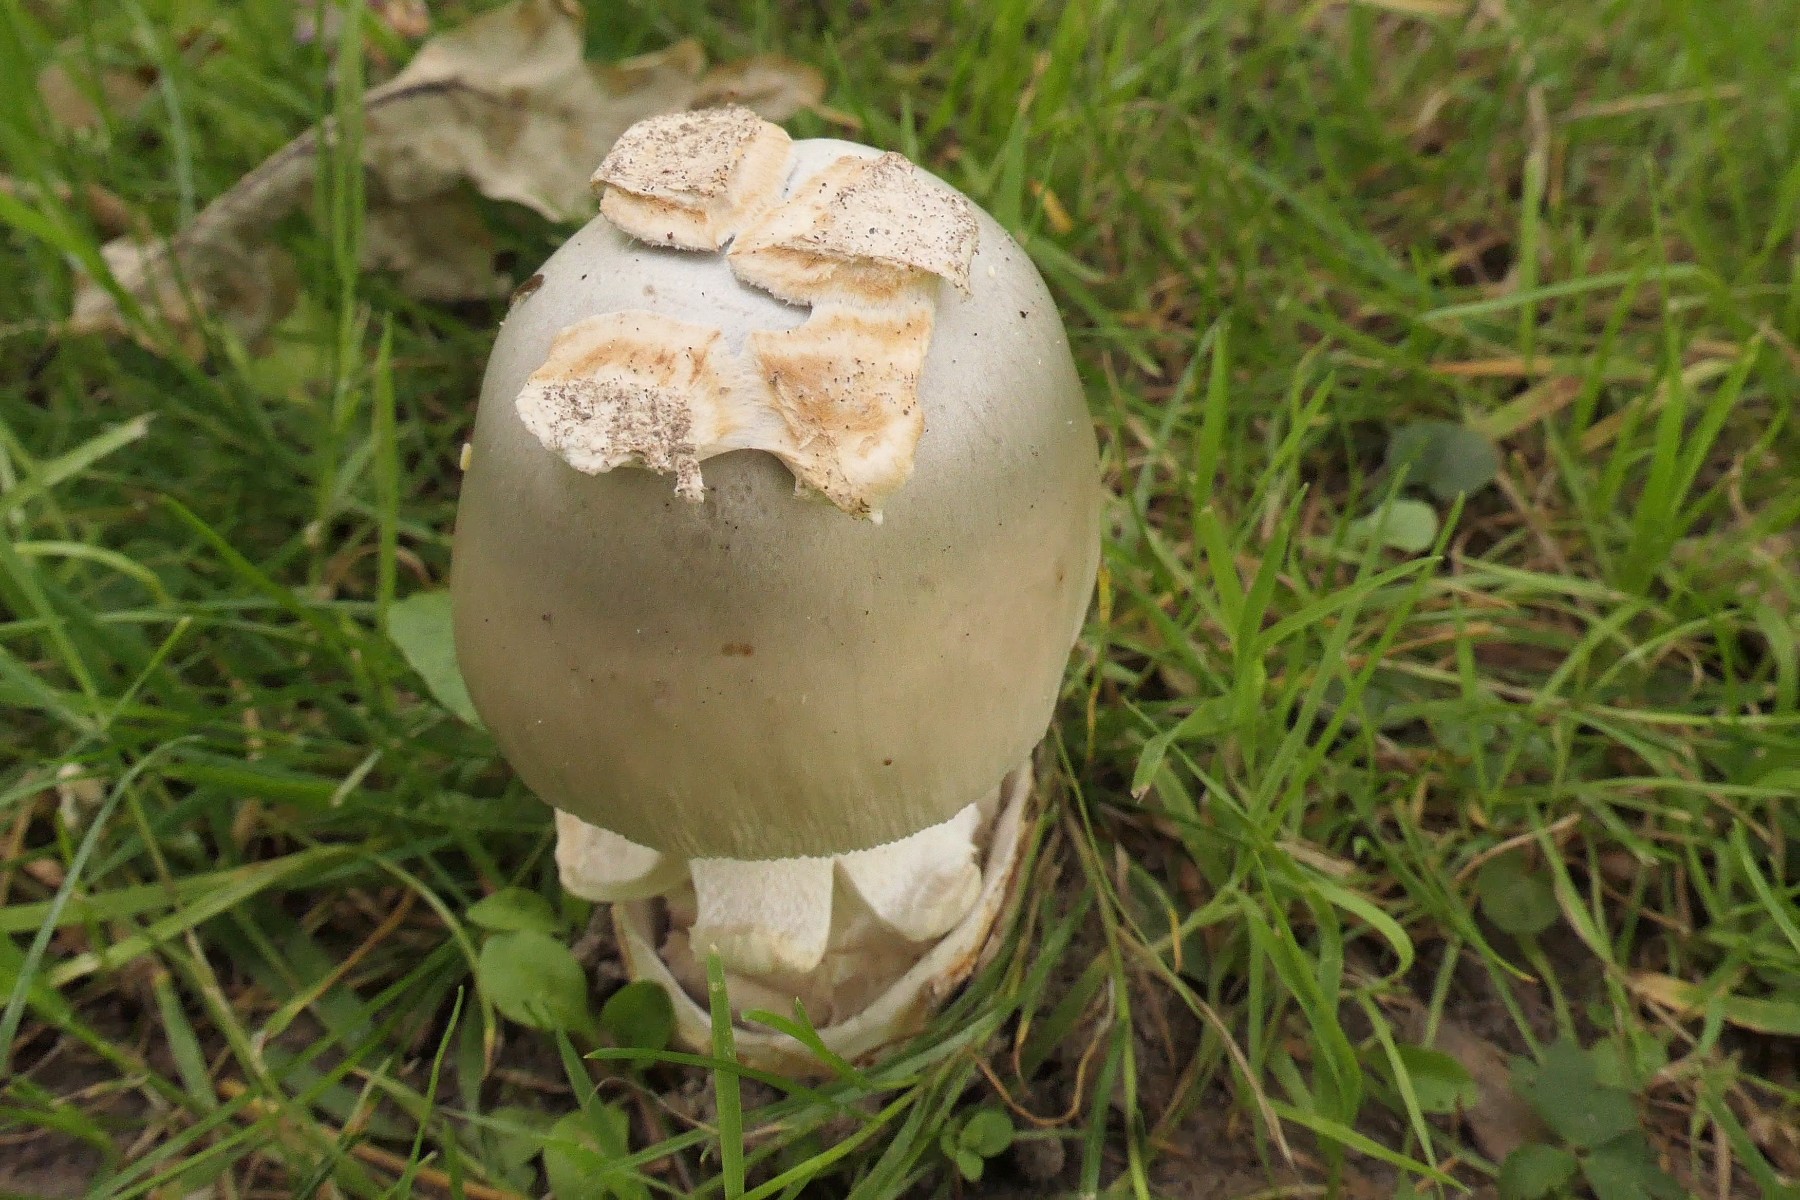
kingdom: Fungi
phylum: Basidiomycota
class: Agaricomycetes
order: Agaricales
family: Amanitaceae
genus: Amanita
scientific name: Amanita lividopallescens
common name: afblegende kam-fluesvamp
